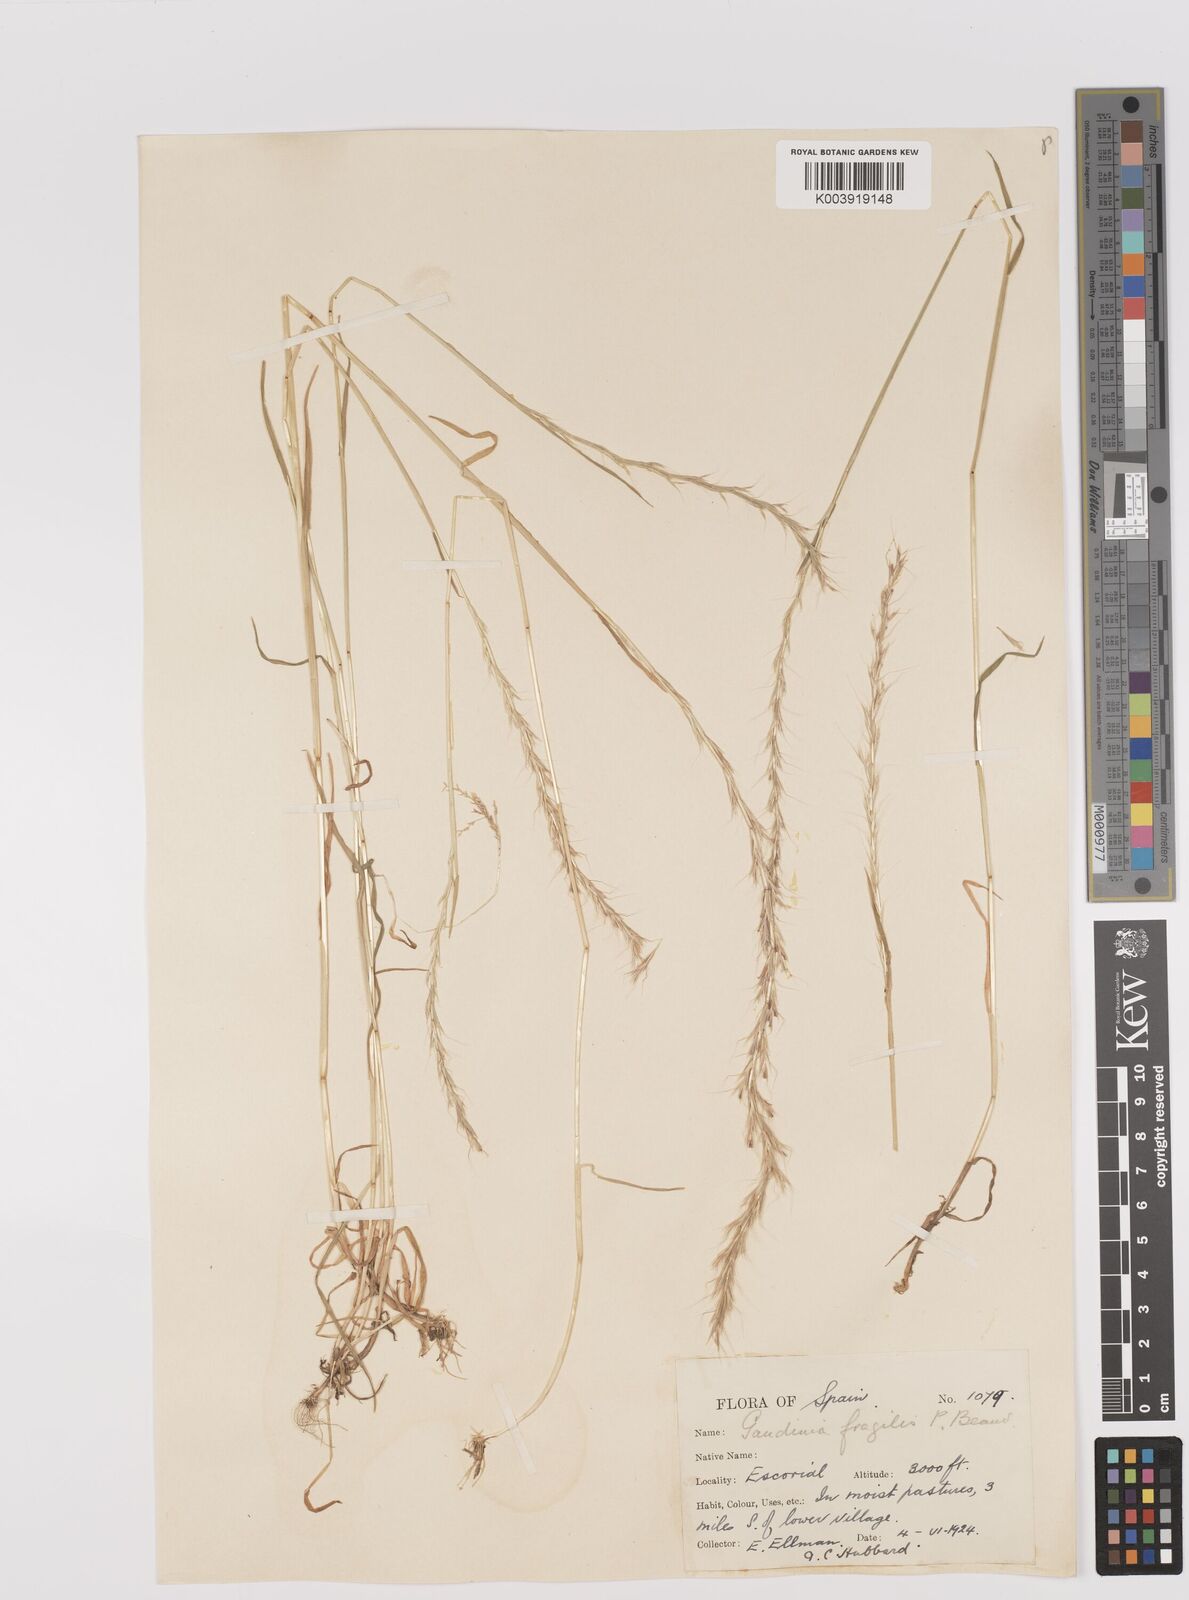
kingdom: Plantae
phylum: Tracheophyta
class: Liliopsida
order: Poales
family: Poaceae
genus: Gaudinia
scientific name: Gaudinia fragilis
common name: French oat-grass
